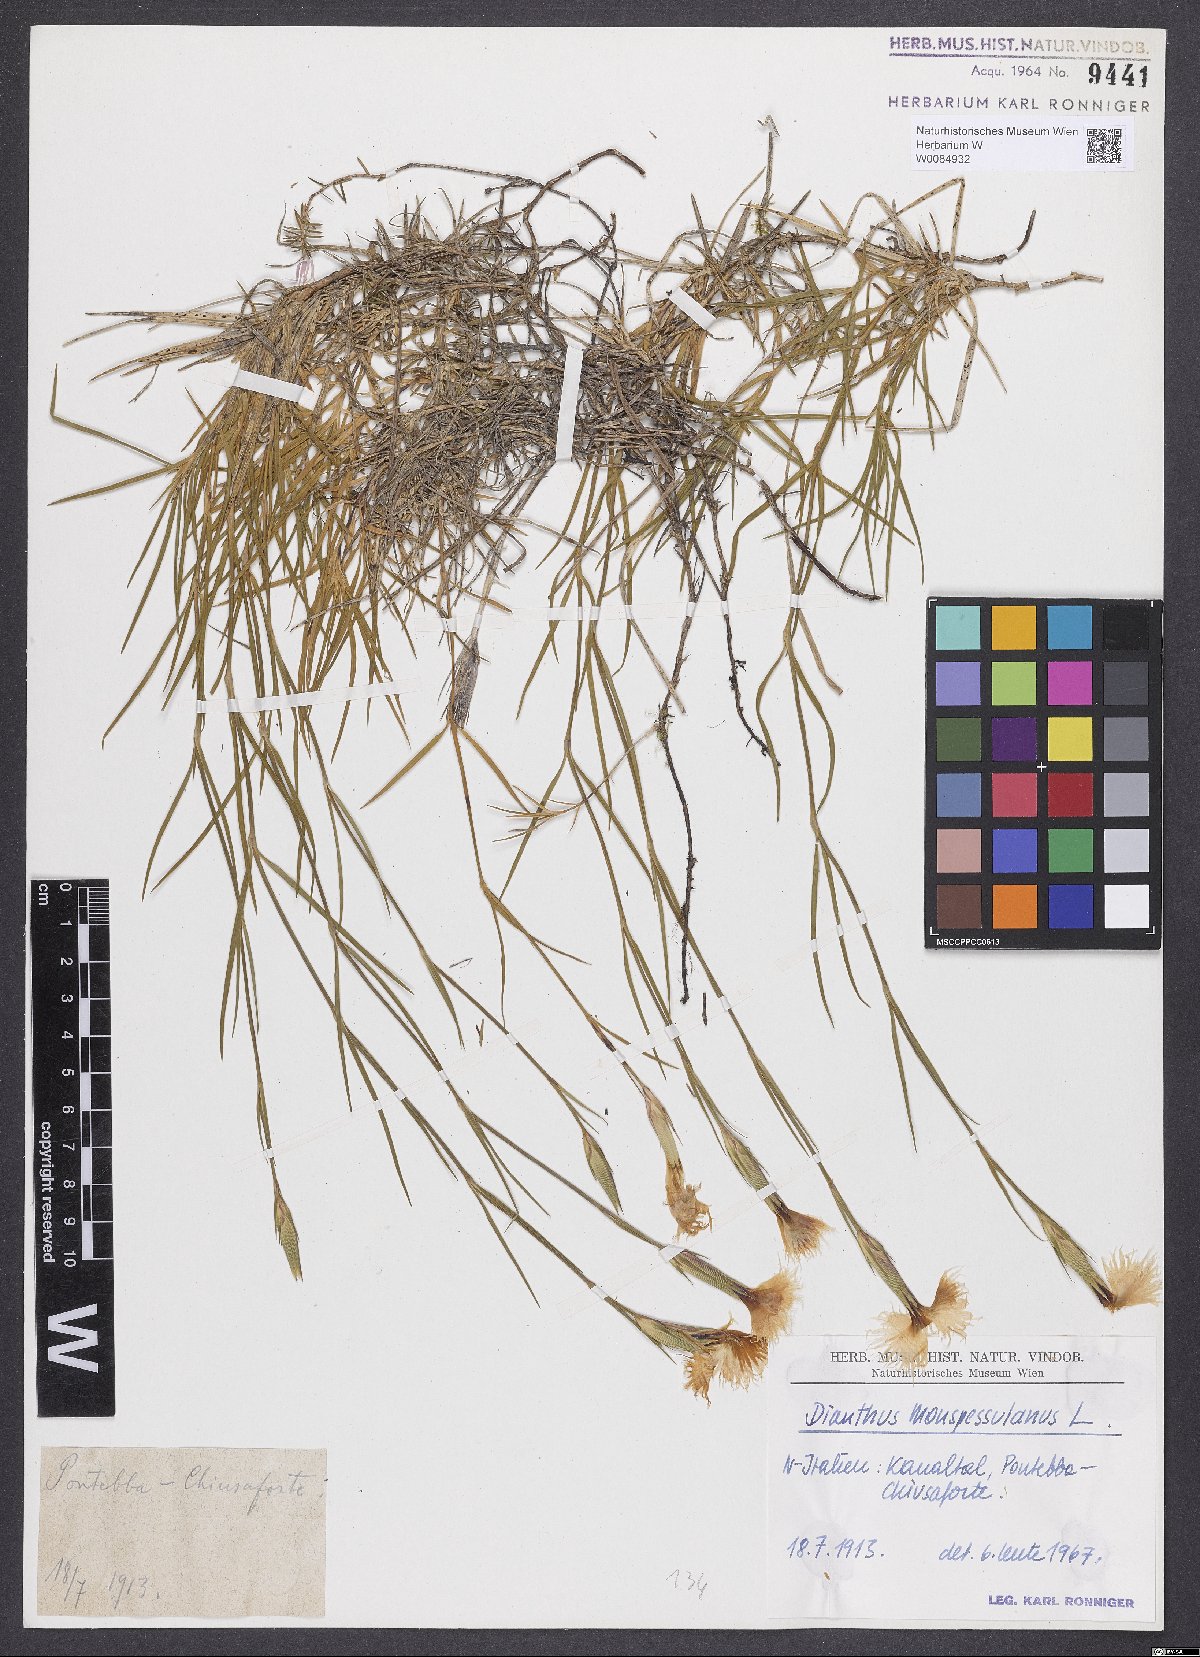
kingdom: Plantae
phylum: Tracheophyta
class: Magnoliopsida
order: Caryophyllales
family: Caryophyllaceae
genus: Dianthus
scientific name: Dianthus hyssopifolius
